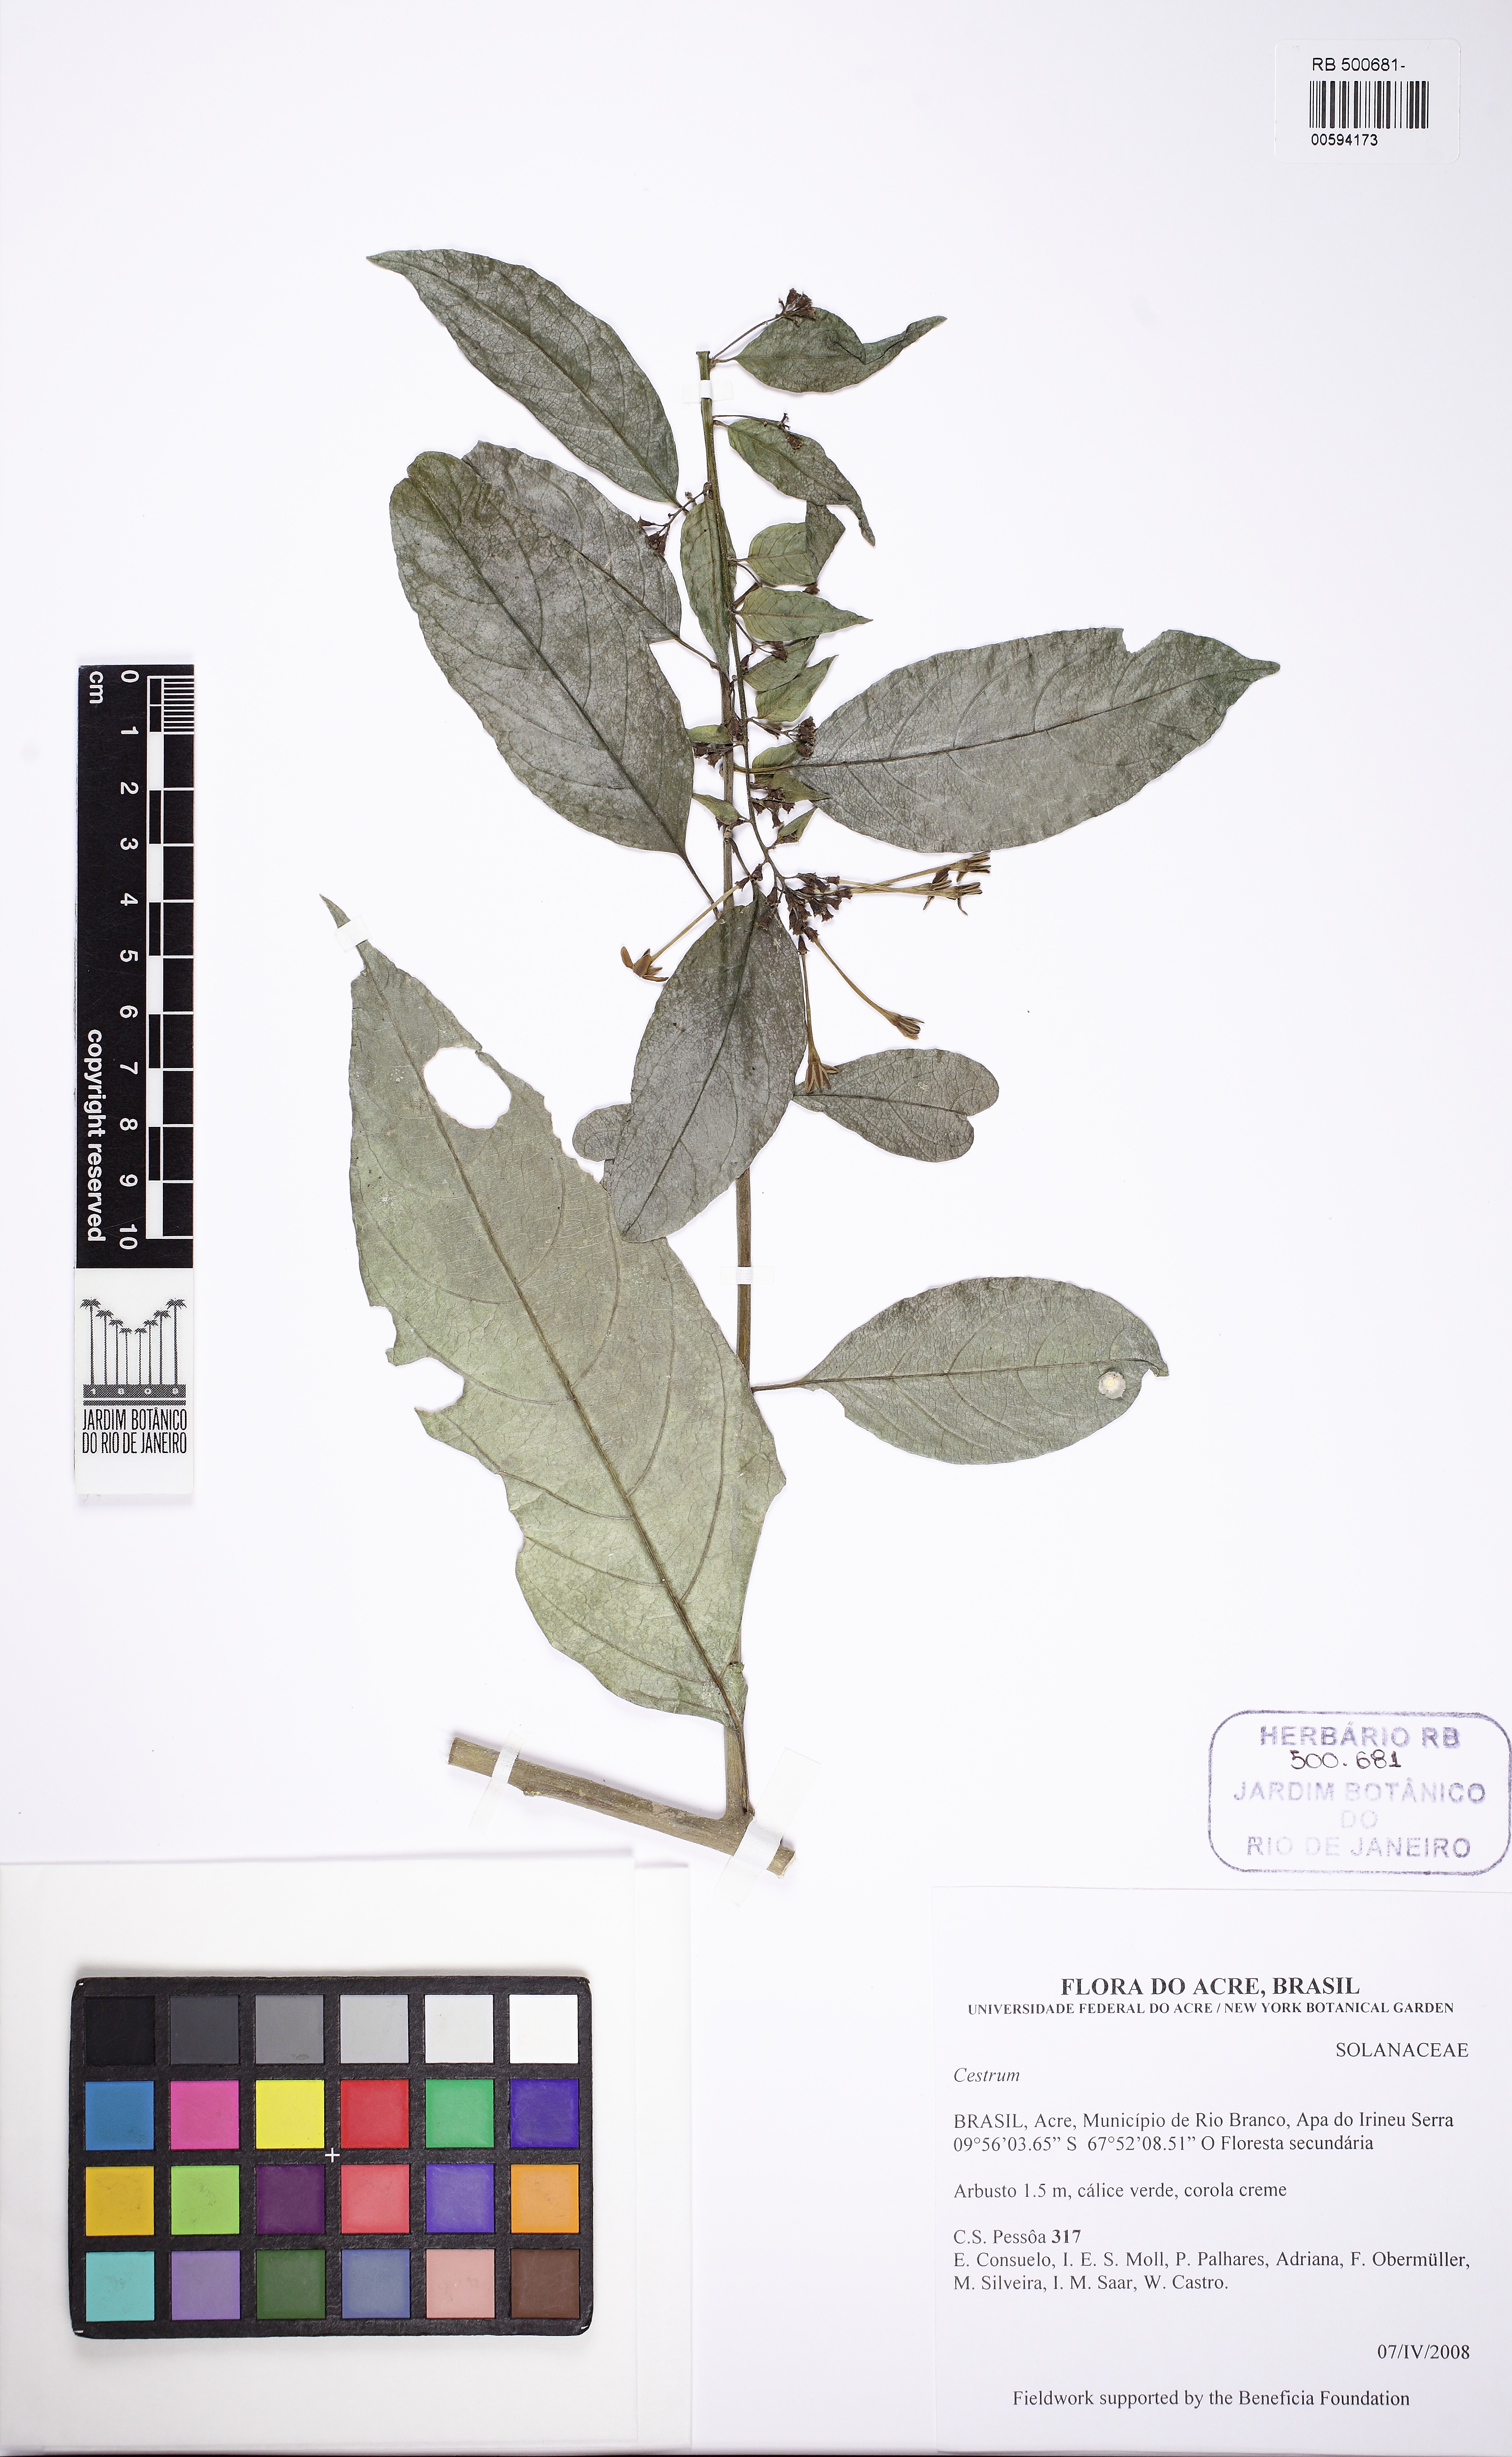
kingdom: Plantae
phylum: Tracheophyta
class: Magnoliopsida
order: Solanales
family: Solanaceae
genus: Cestrum
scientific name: Cestrum
